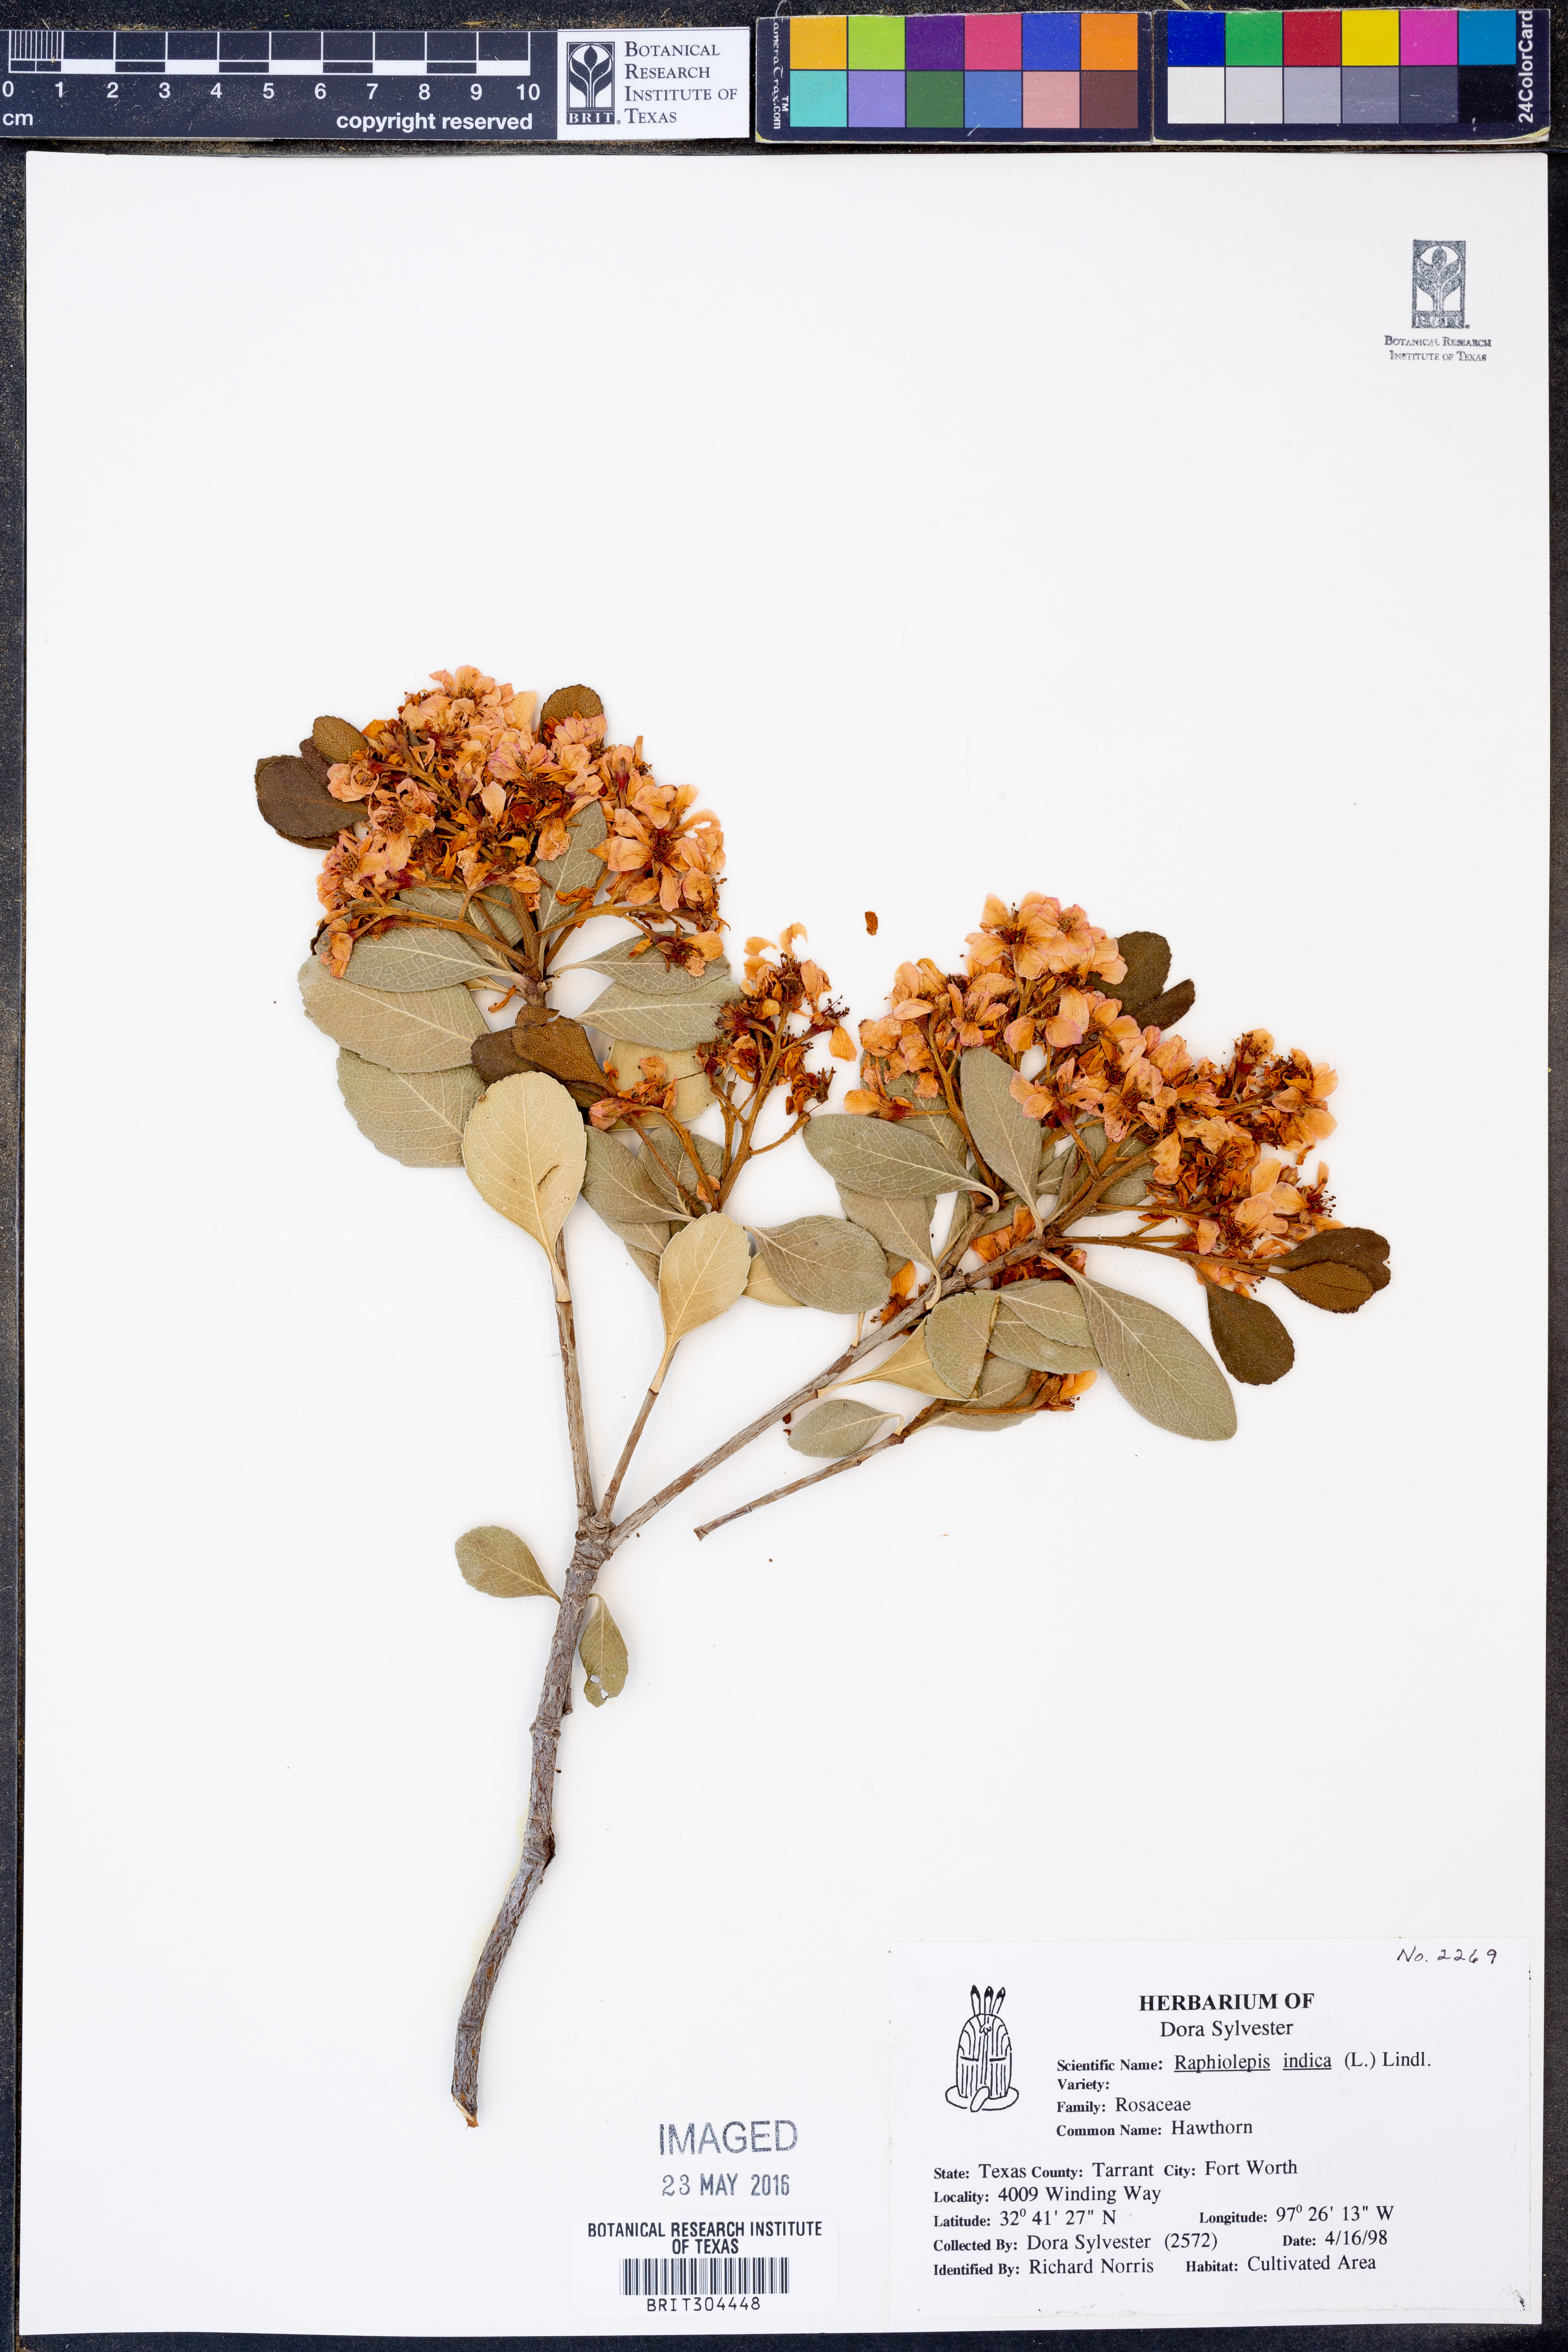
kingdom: Plantae
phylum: Tracheophyta
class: Magnoliopsida
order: Rosales
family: Rosaceae
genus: Rhaphiolepis
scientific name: Rhaphiolepis indica
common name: India-hawthorn
